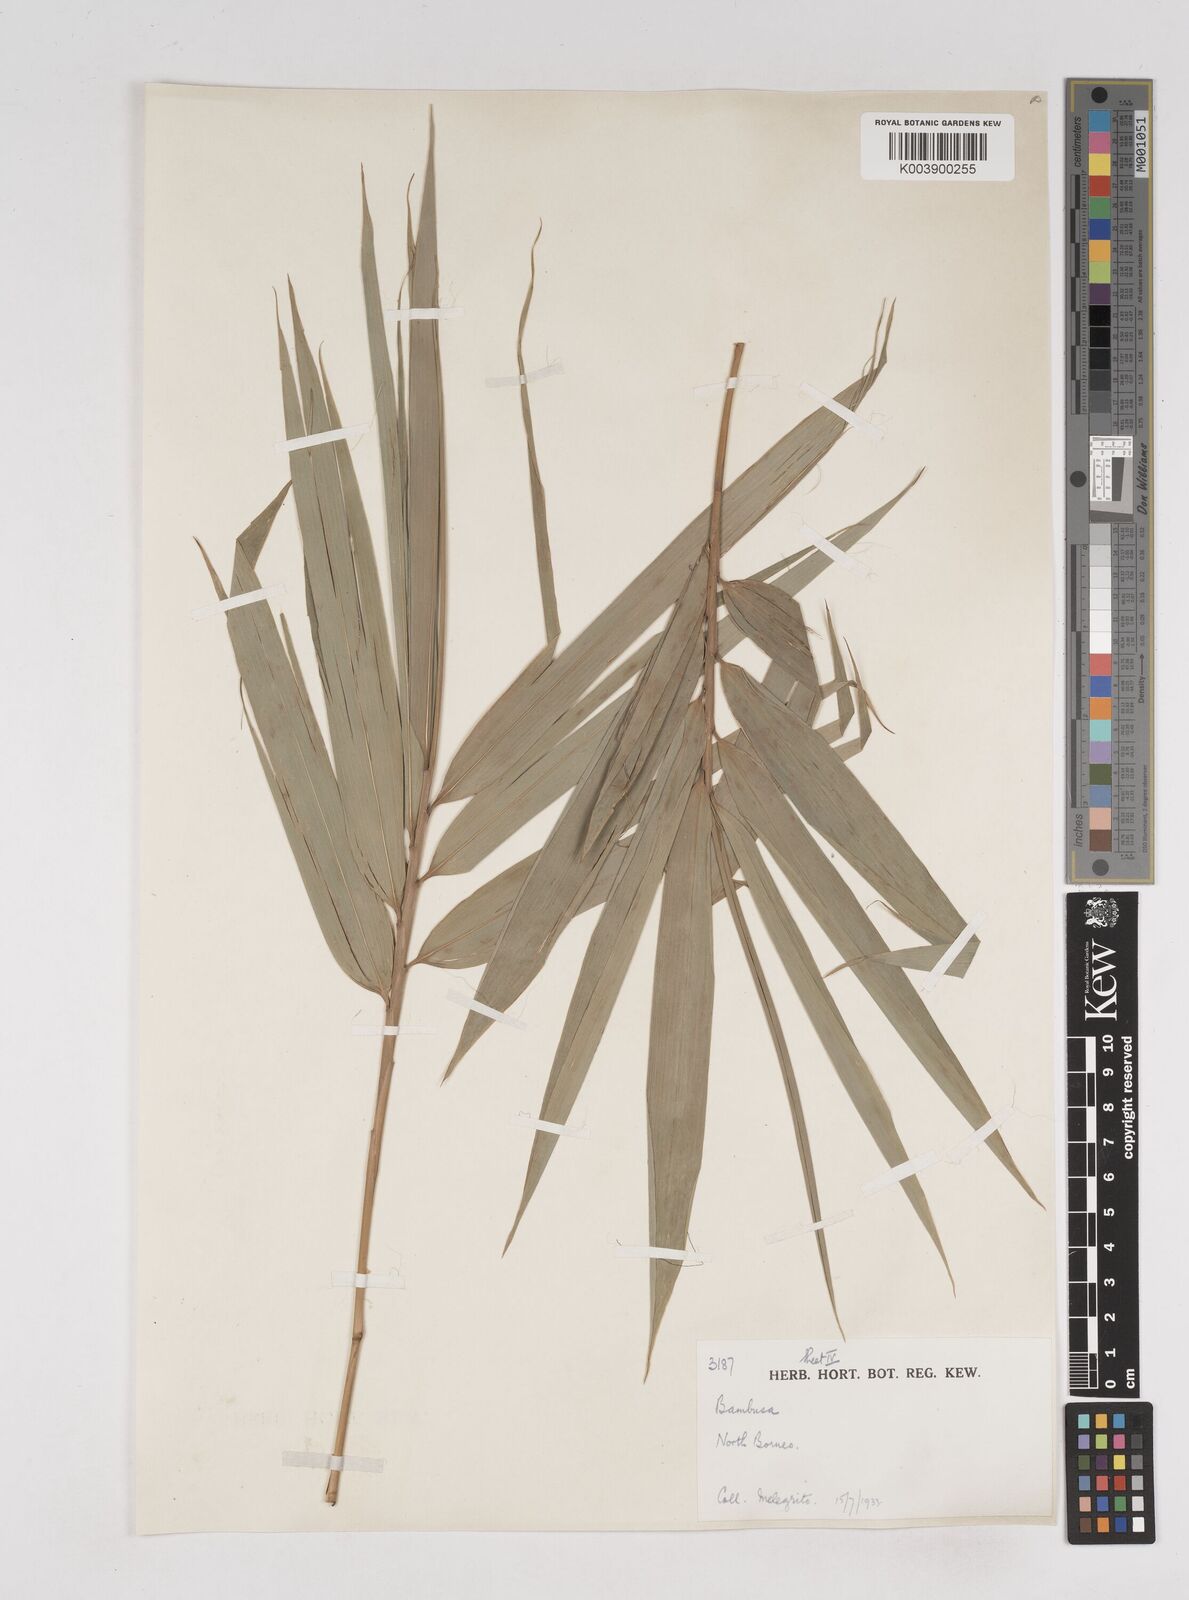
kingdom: Plantae
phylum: Tracheophyta
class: Liliopsida
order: Poales
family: Poaceae
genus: Gigantochloa
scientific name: Gigantochloa
